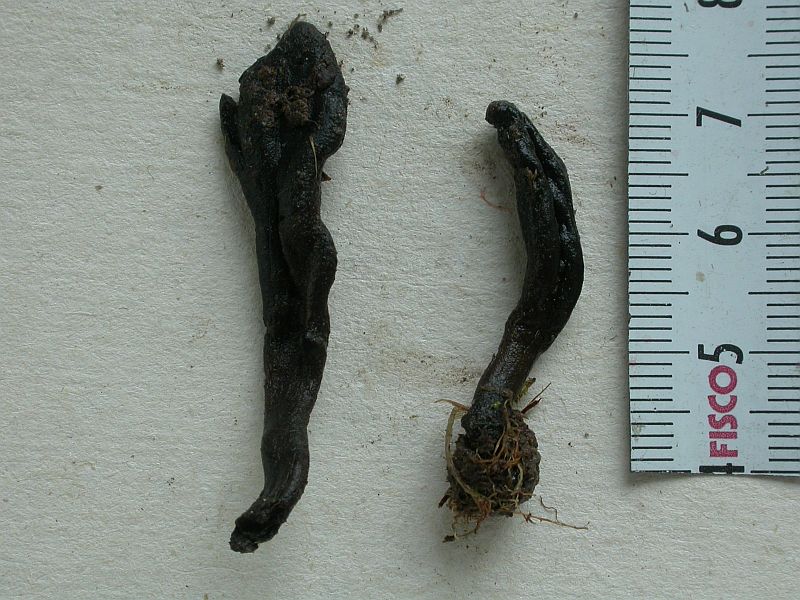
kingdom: Fungi
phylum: Ascomycota
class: Geoglossomycetes
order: Geoglossales
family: Geoglossaceae
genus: Geoglossum
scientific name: Geoglossum
